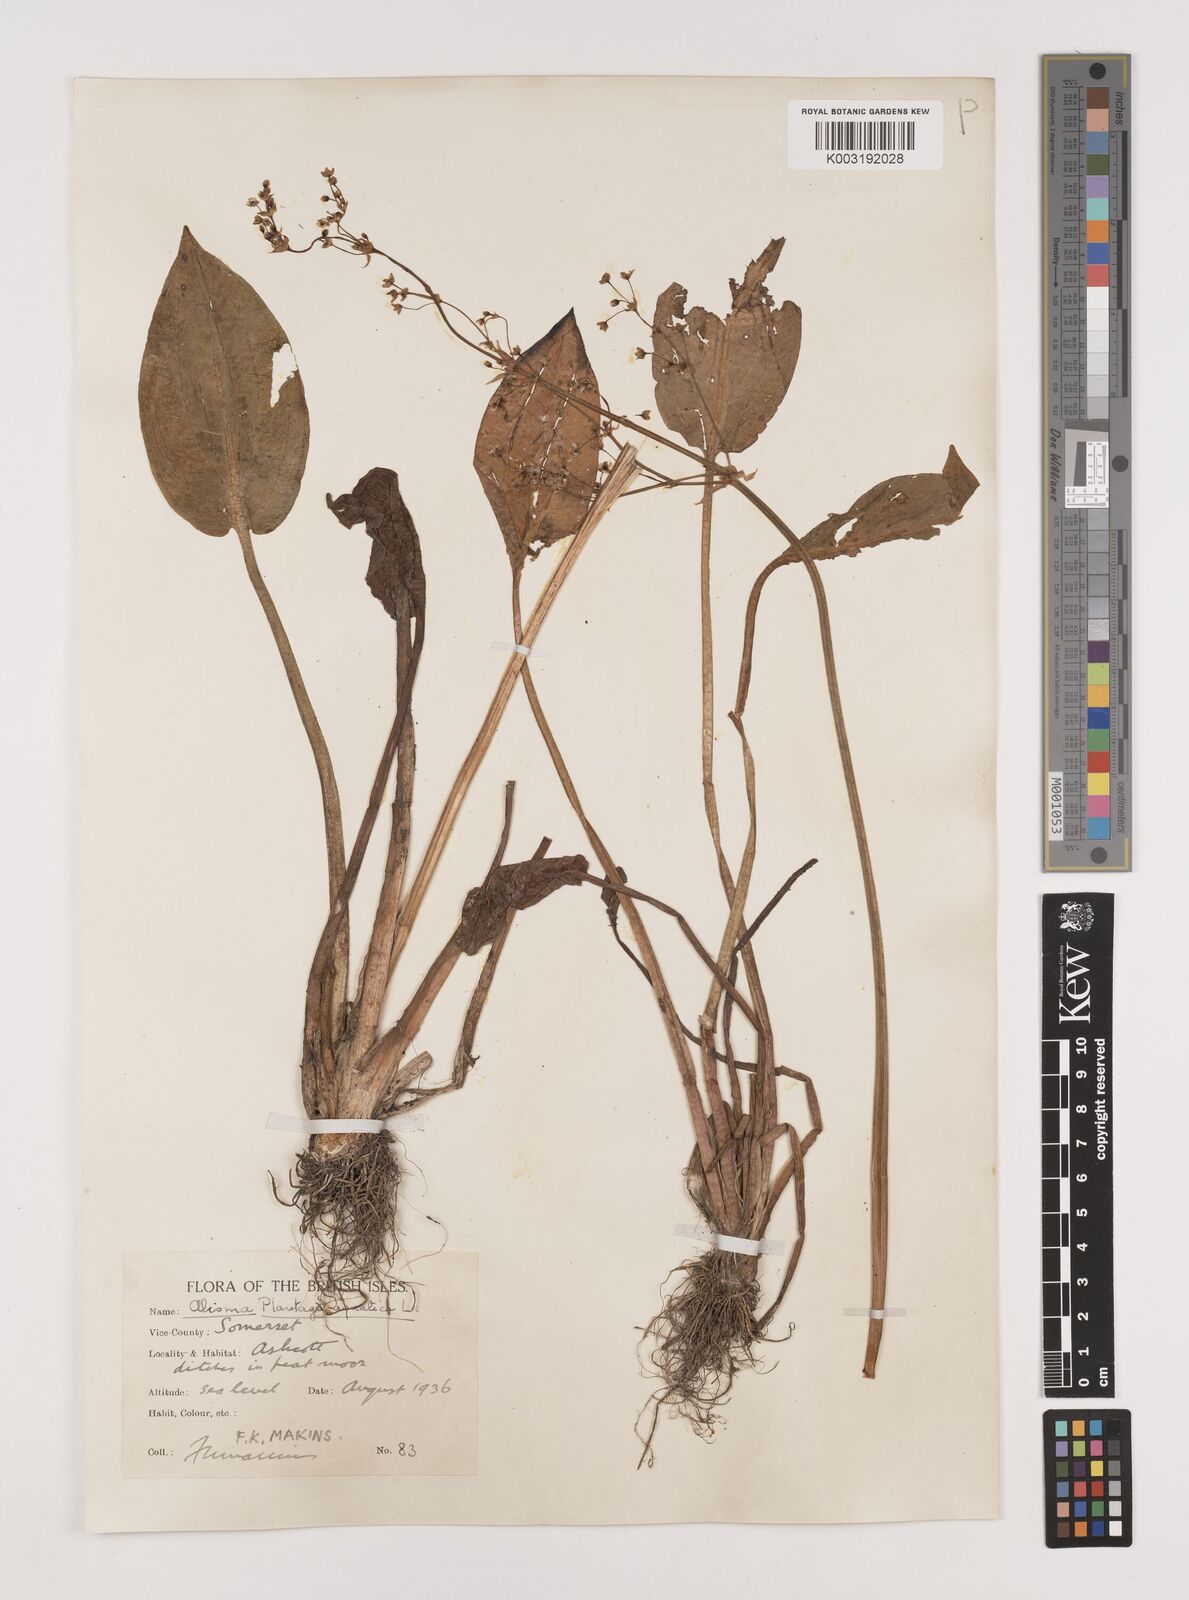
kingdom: Plantae
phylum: Tracheophyta
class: Liliopsida
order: Alismatales
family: Alismataceae
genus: Alisma
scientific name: Alisma plantago-aquatica
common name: Water-plantain
